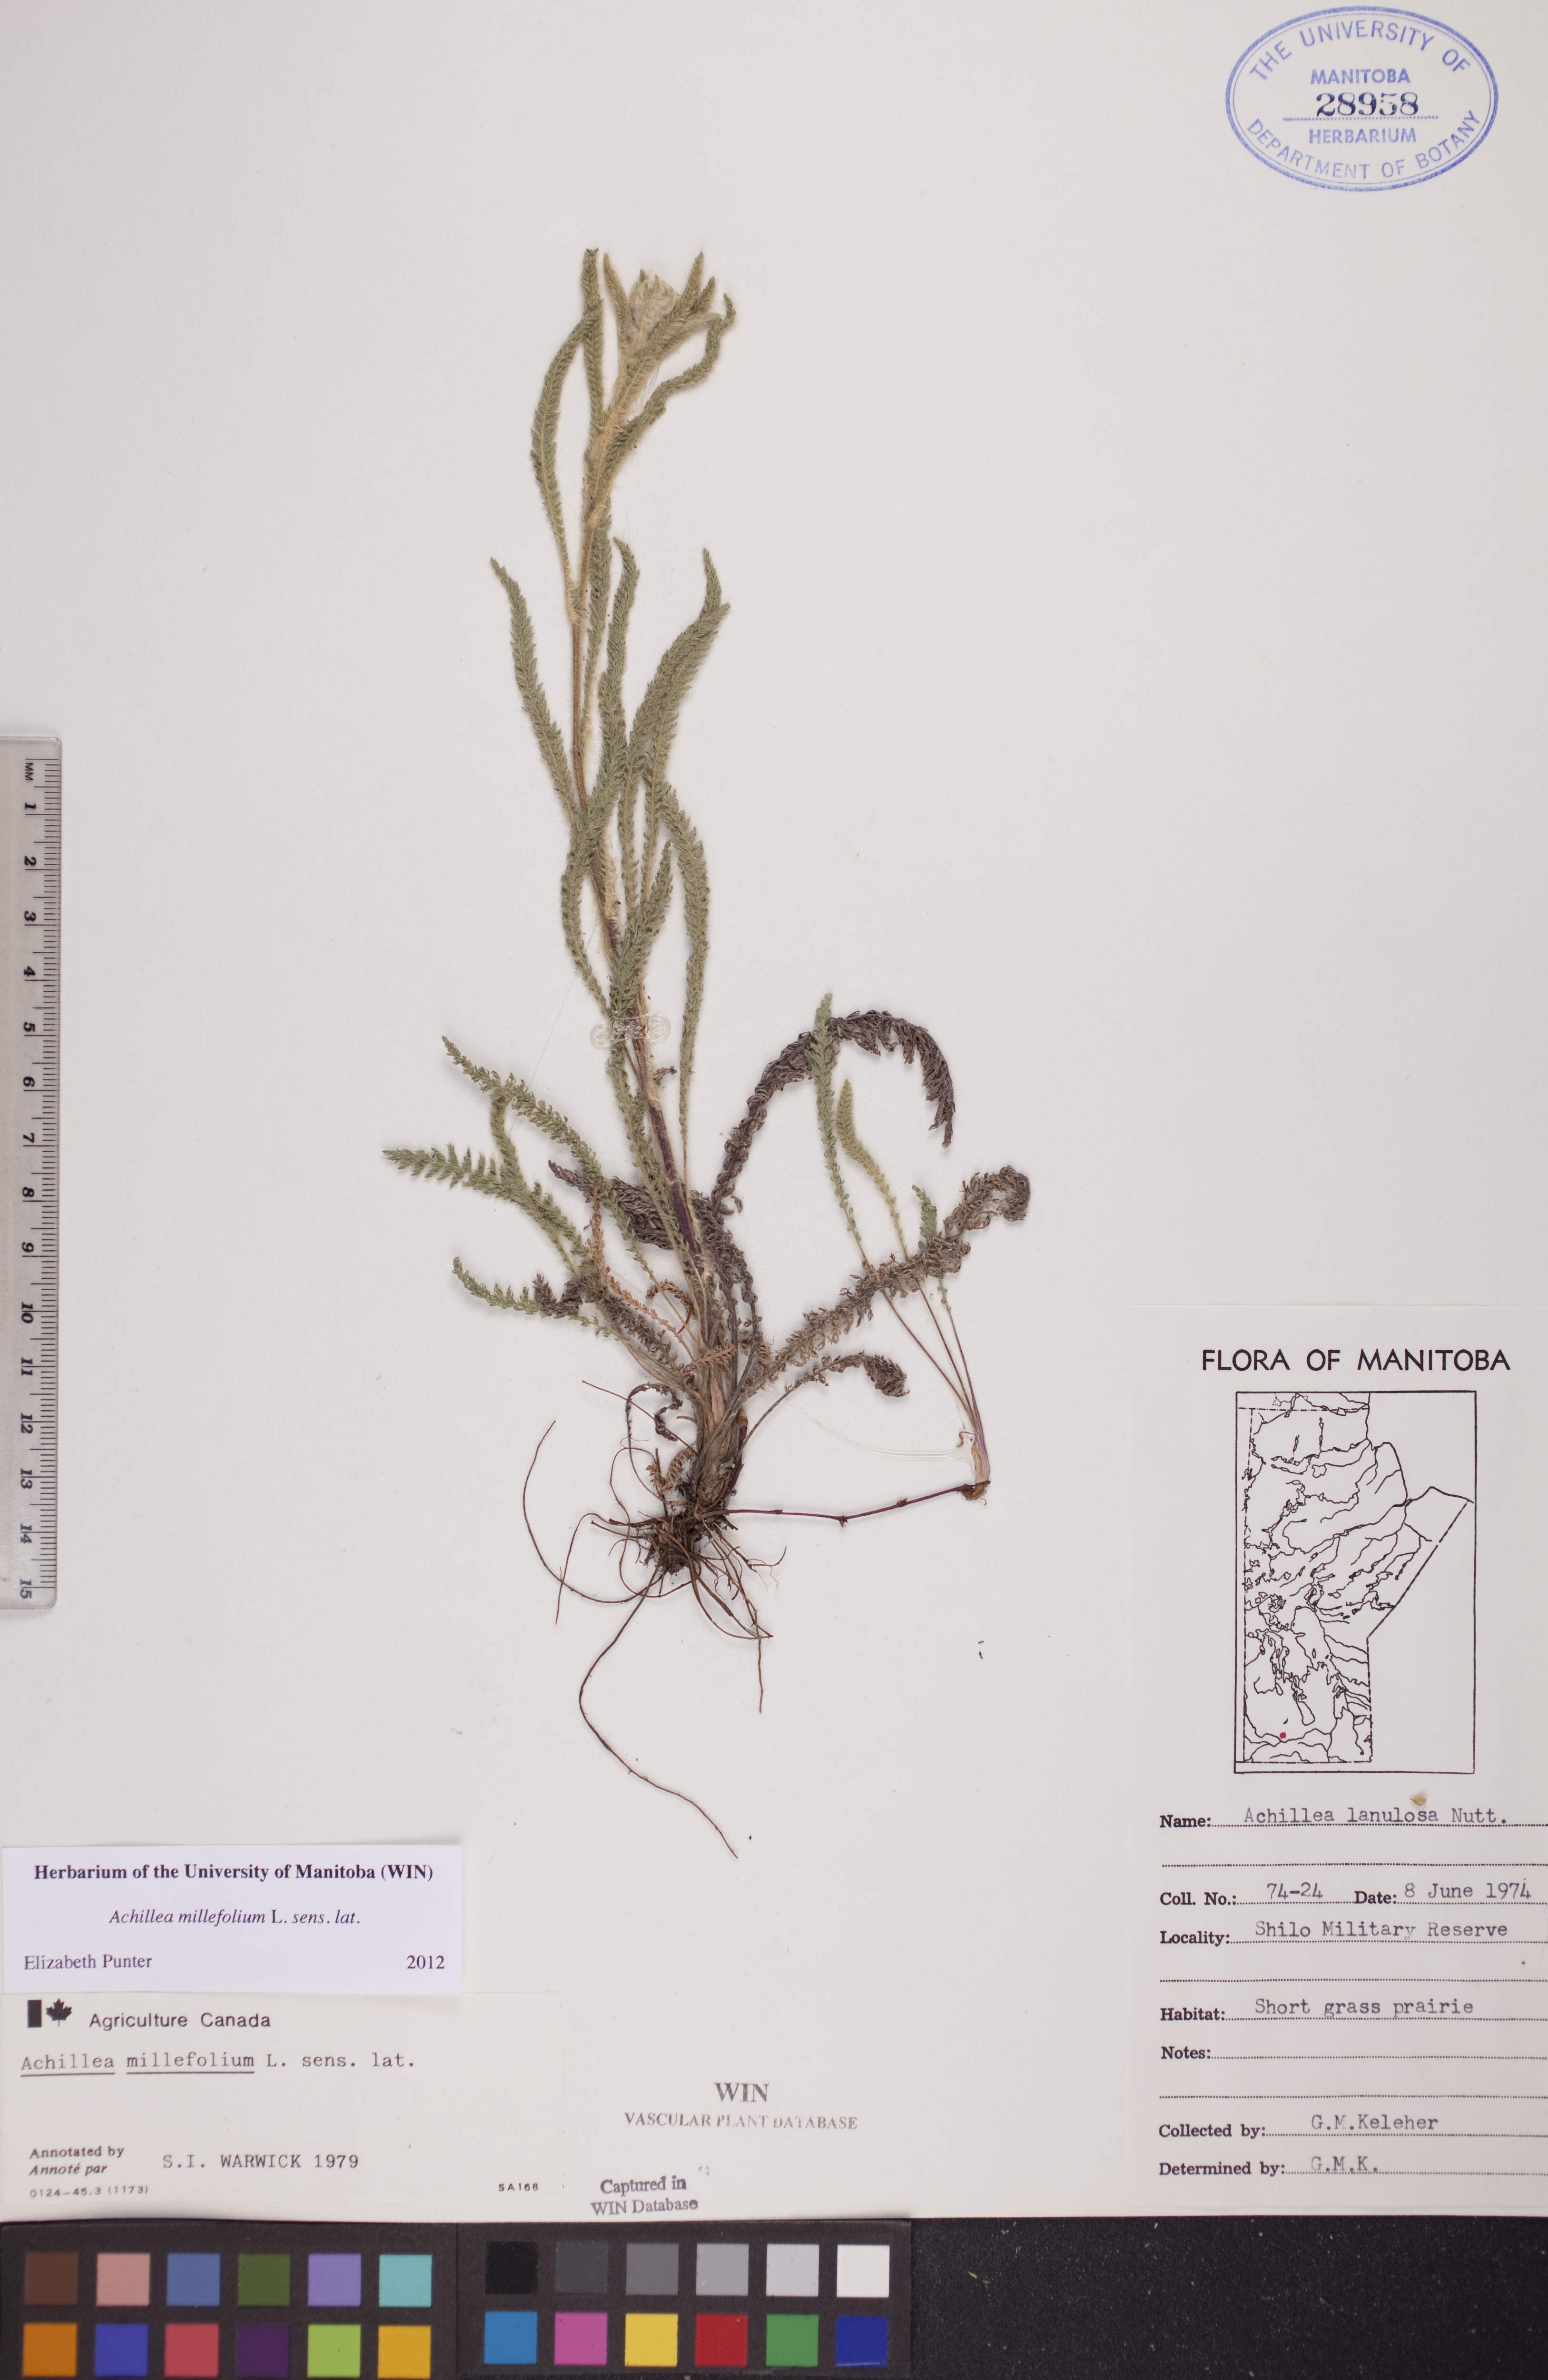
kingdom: Plantae
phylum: Tracheophyta
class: Magnoliopsida
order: Asterales
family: Asteraceae
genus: Achillea
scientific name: Achillea millefolium
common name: Yarrow
